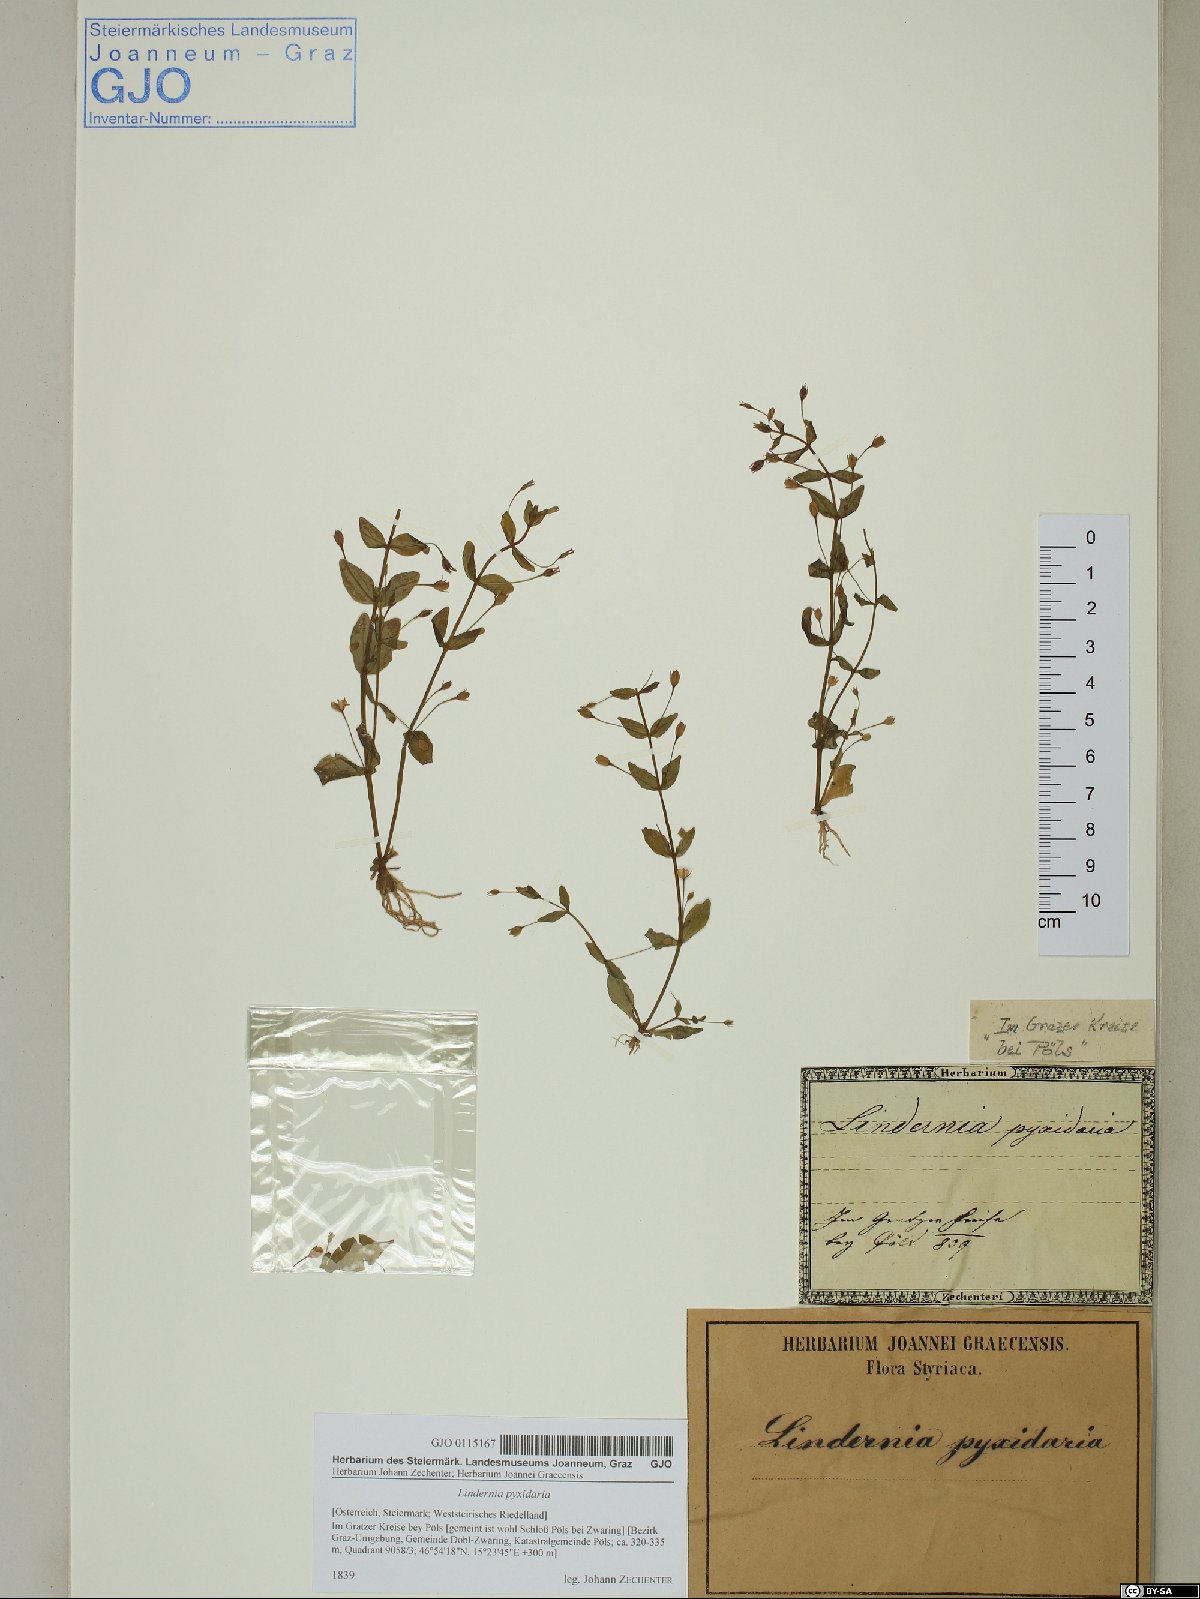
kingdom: Plantae
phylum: Tracheophyta
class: Magnoliopsida
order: Lamiales
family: Linderniaceae
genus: Lindernia
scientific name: Lindernia dubia
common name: Annual false pimpernel
